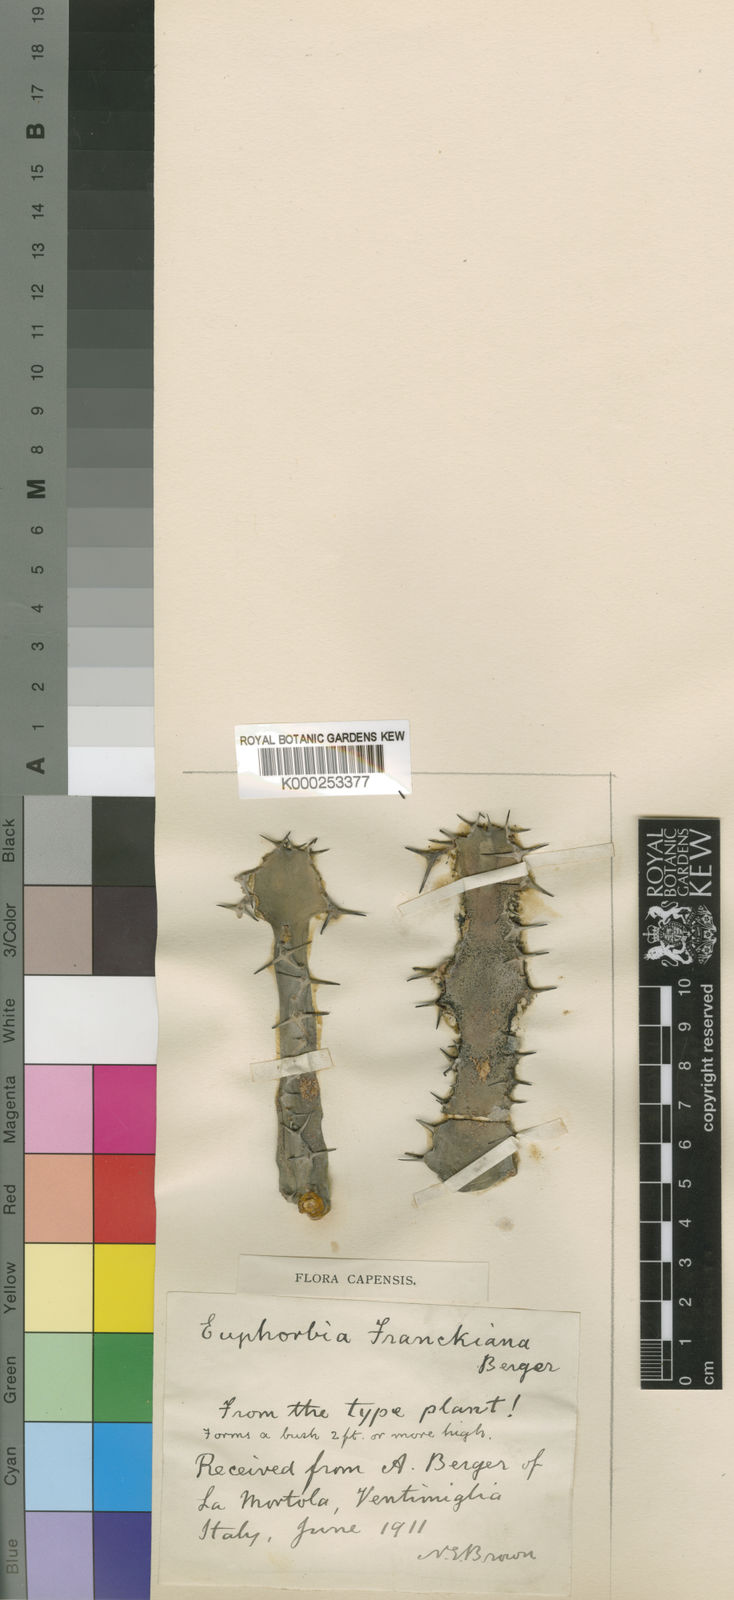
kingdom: Plantae
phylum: Tracheophyta
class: Magnoliopsida
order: Malpighiales
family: Euphorbiaceae
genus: Euphorbia
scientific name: Euphorbia franckiana
